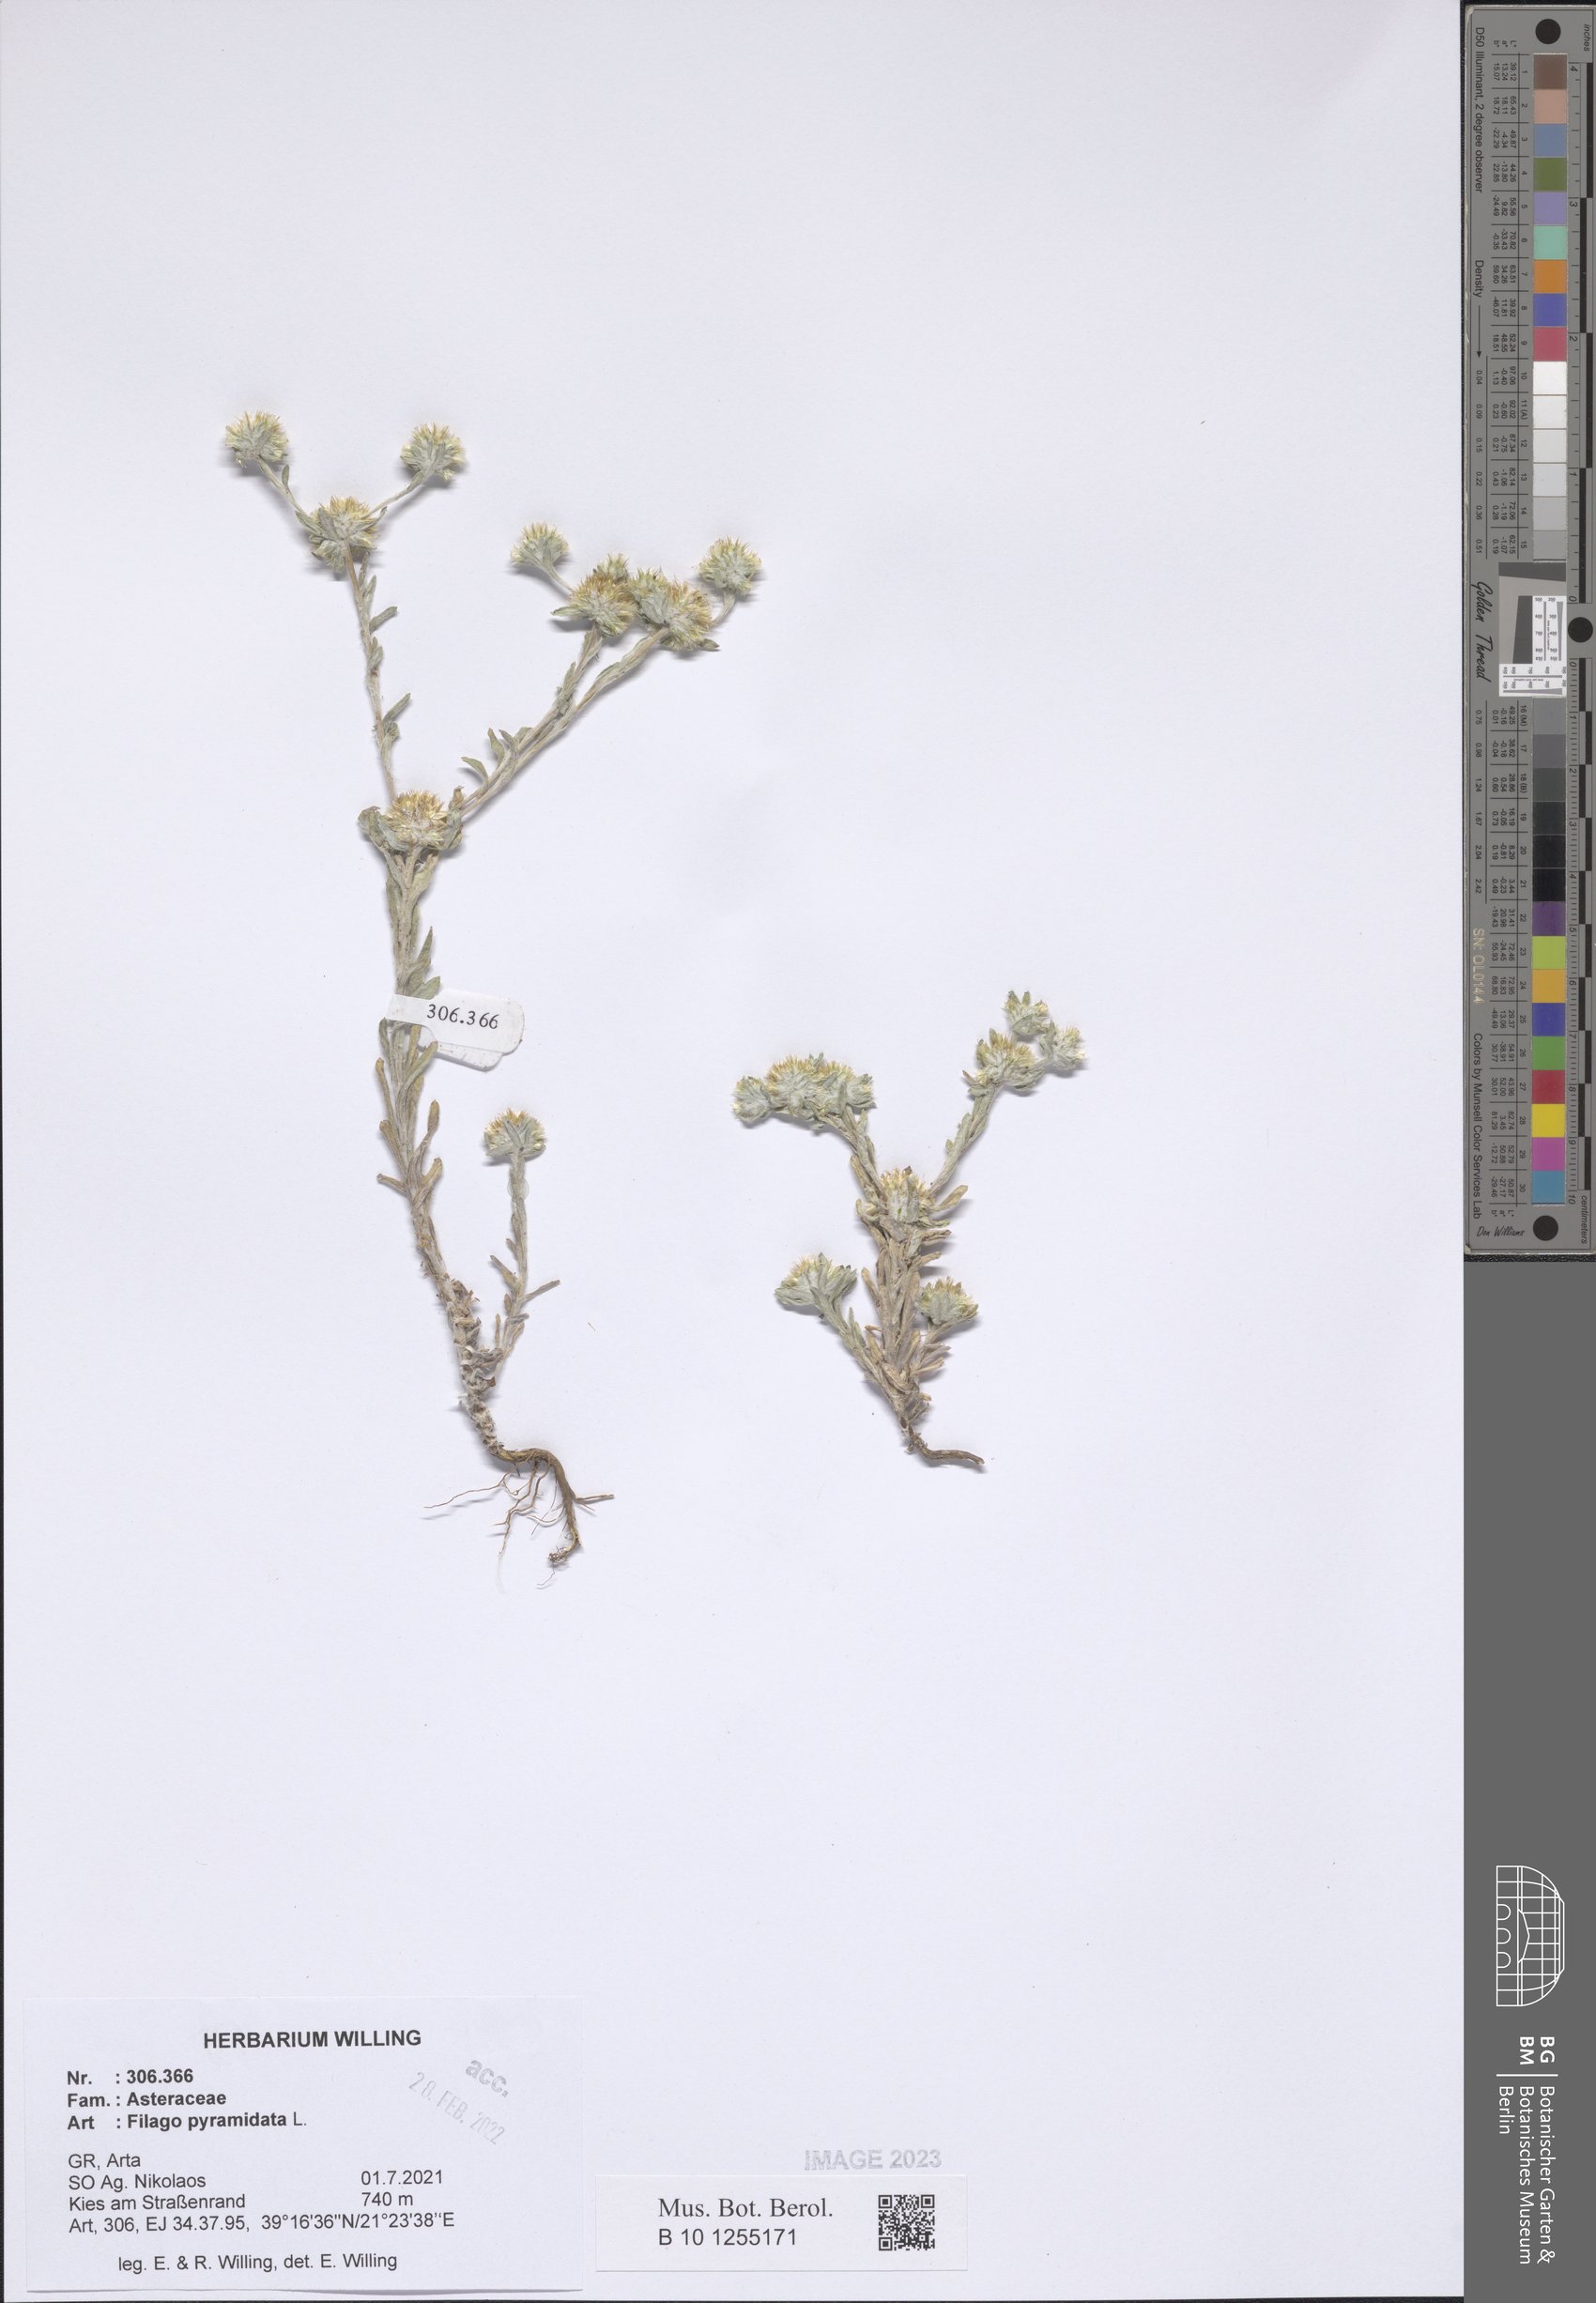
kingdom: Plantae
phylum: Tracheophyta
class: Magnoliopsida
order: Asterales
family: Asteraceae
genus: Filago
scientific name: Filago pyramidata
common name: Broad-leaved cudweed
